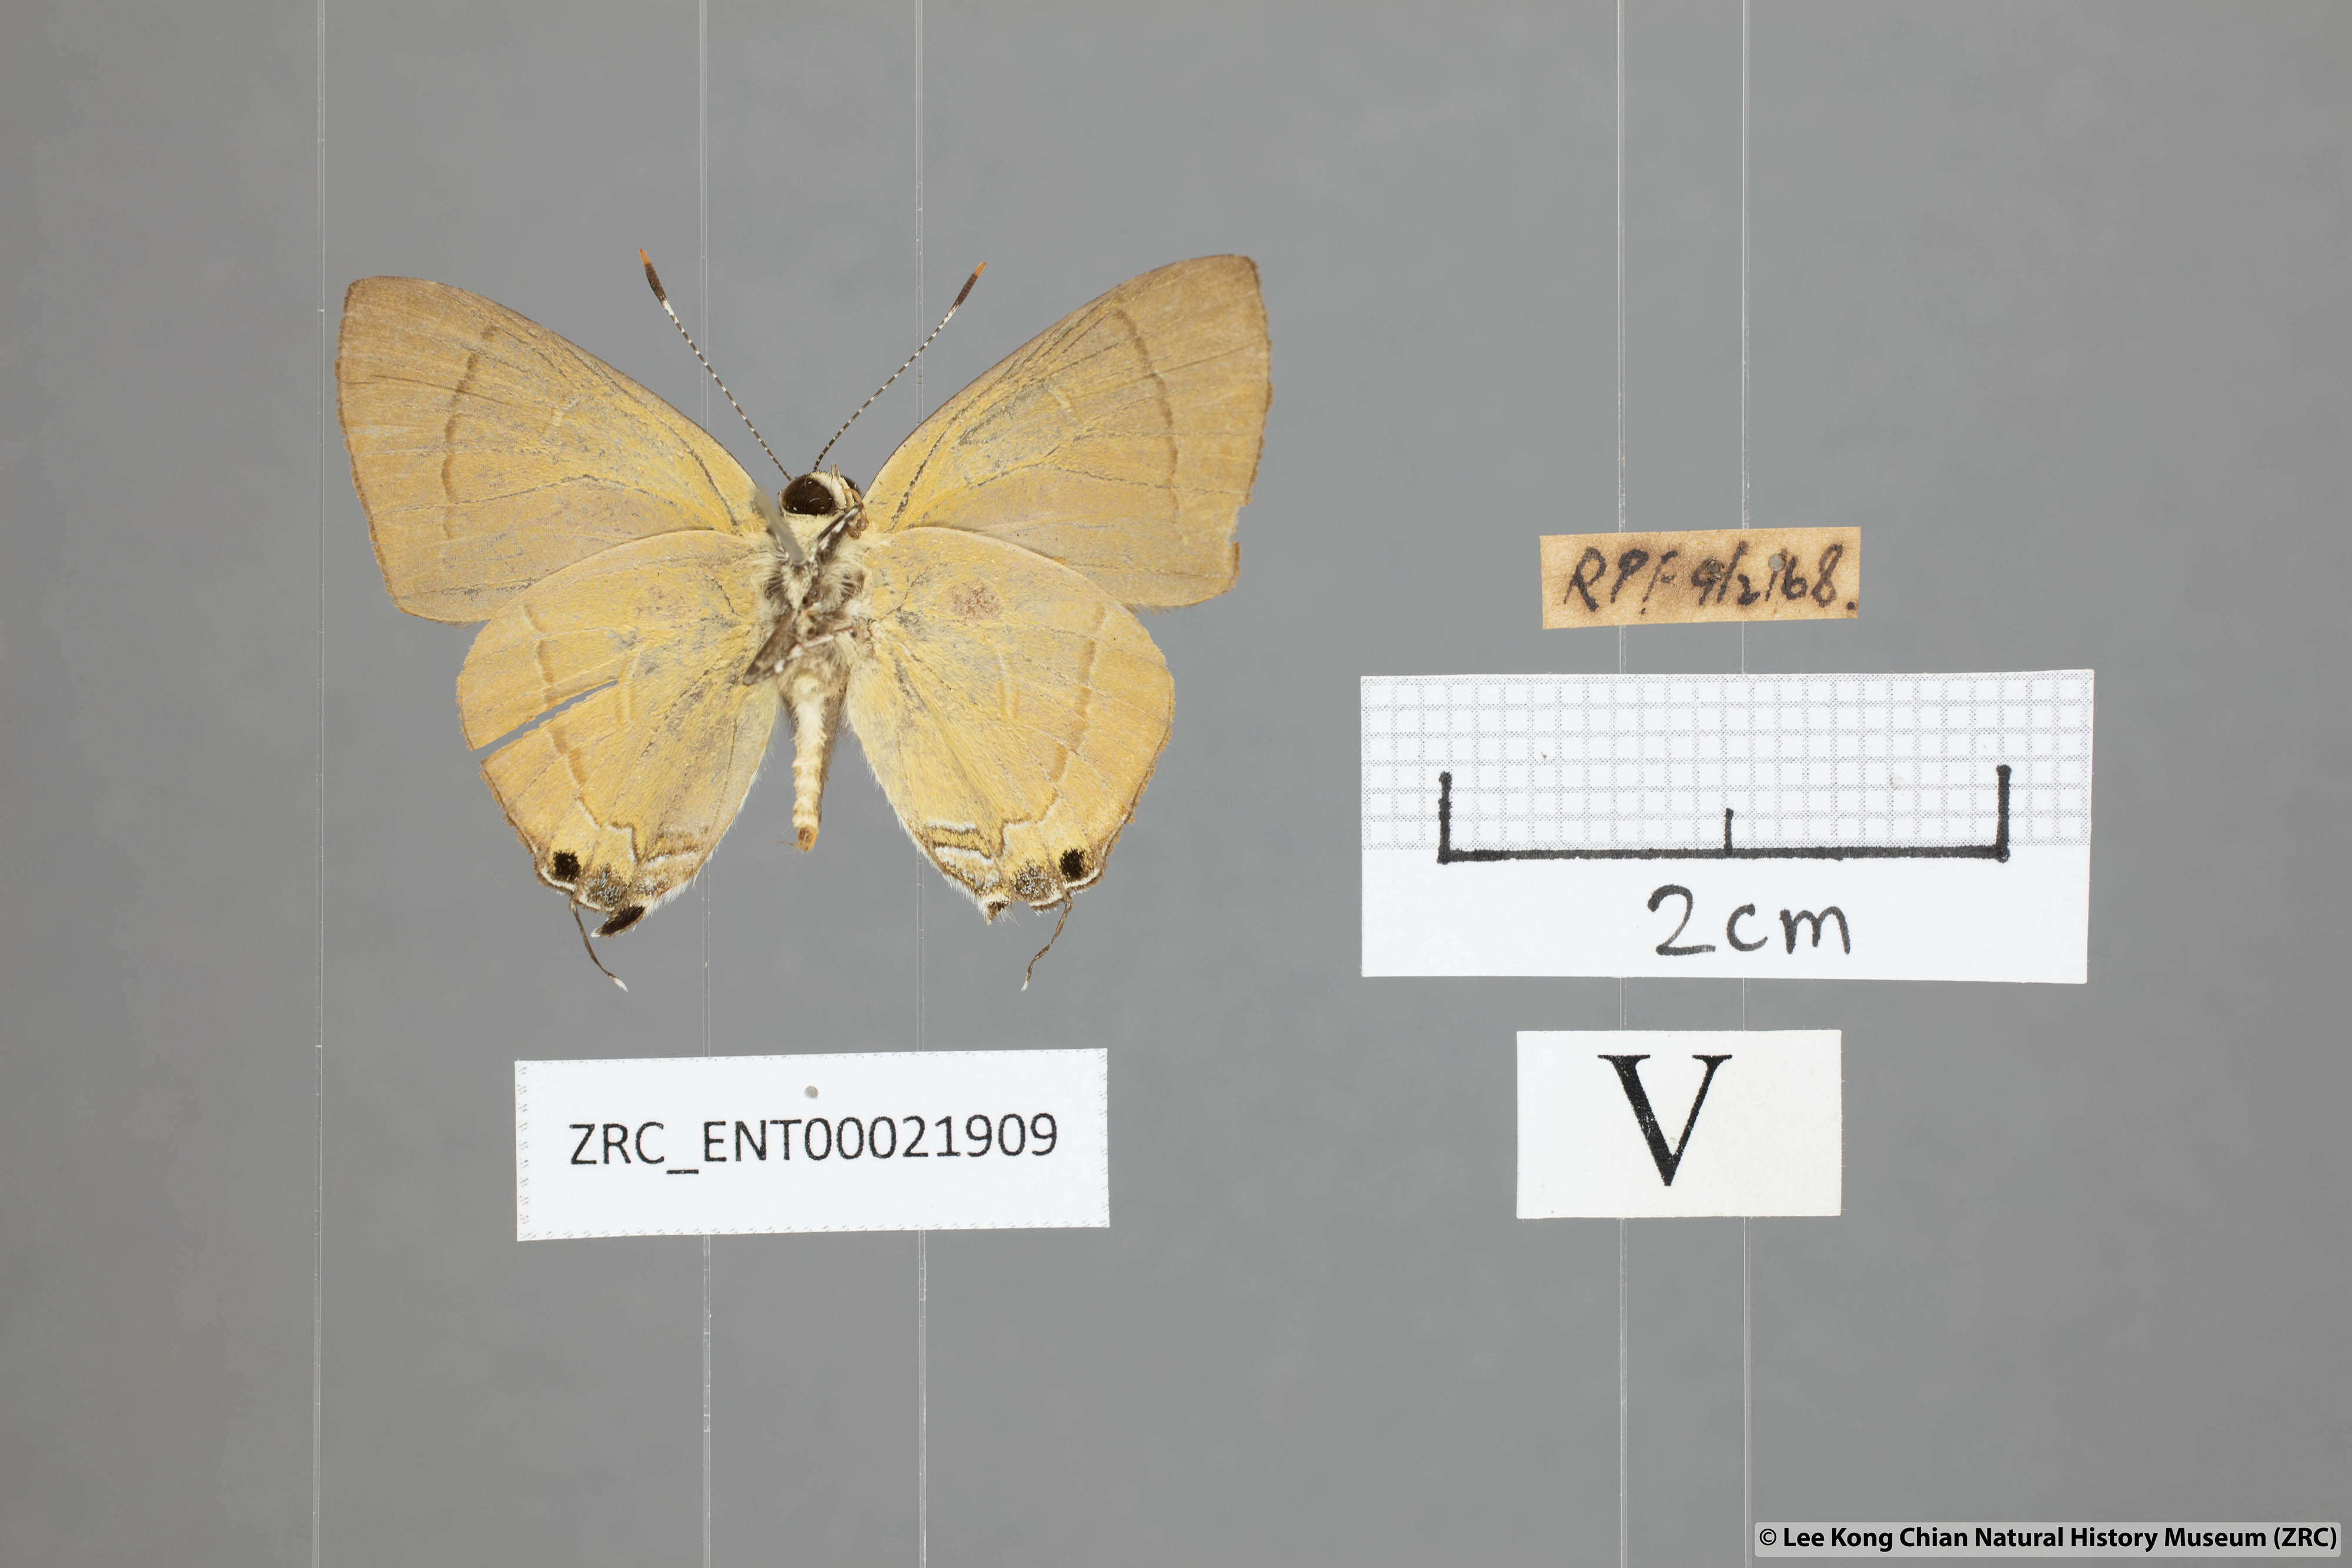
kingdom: Animalia
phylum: Arthropoda
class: Insecta
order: Lepidoptera
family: Lycaenidae
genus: Rapala
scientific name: Rapala suffusa
